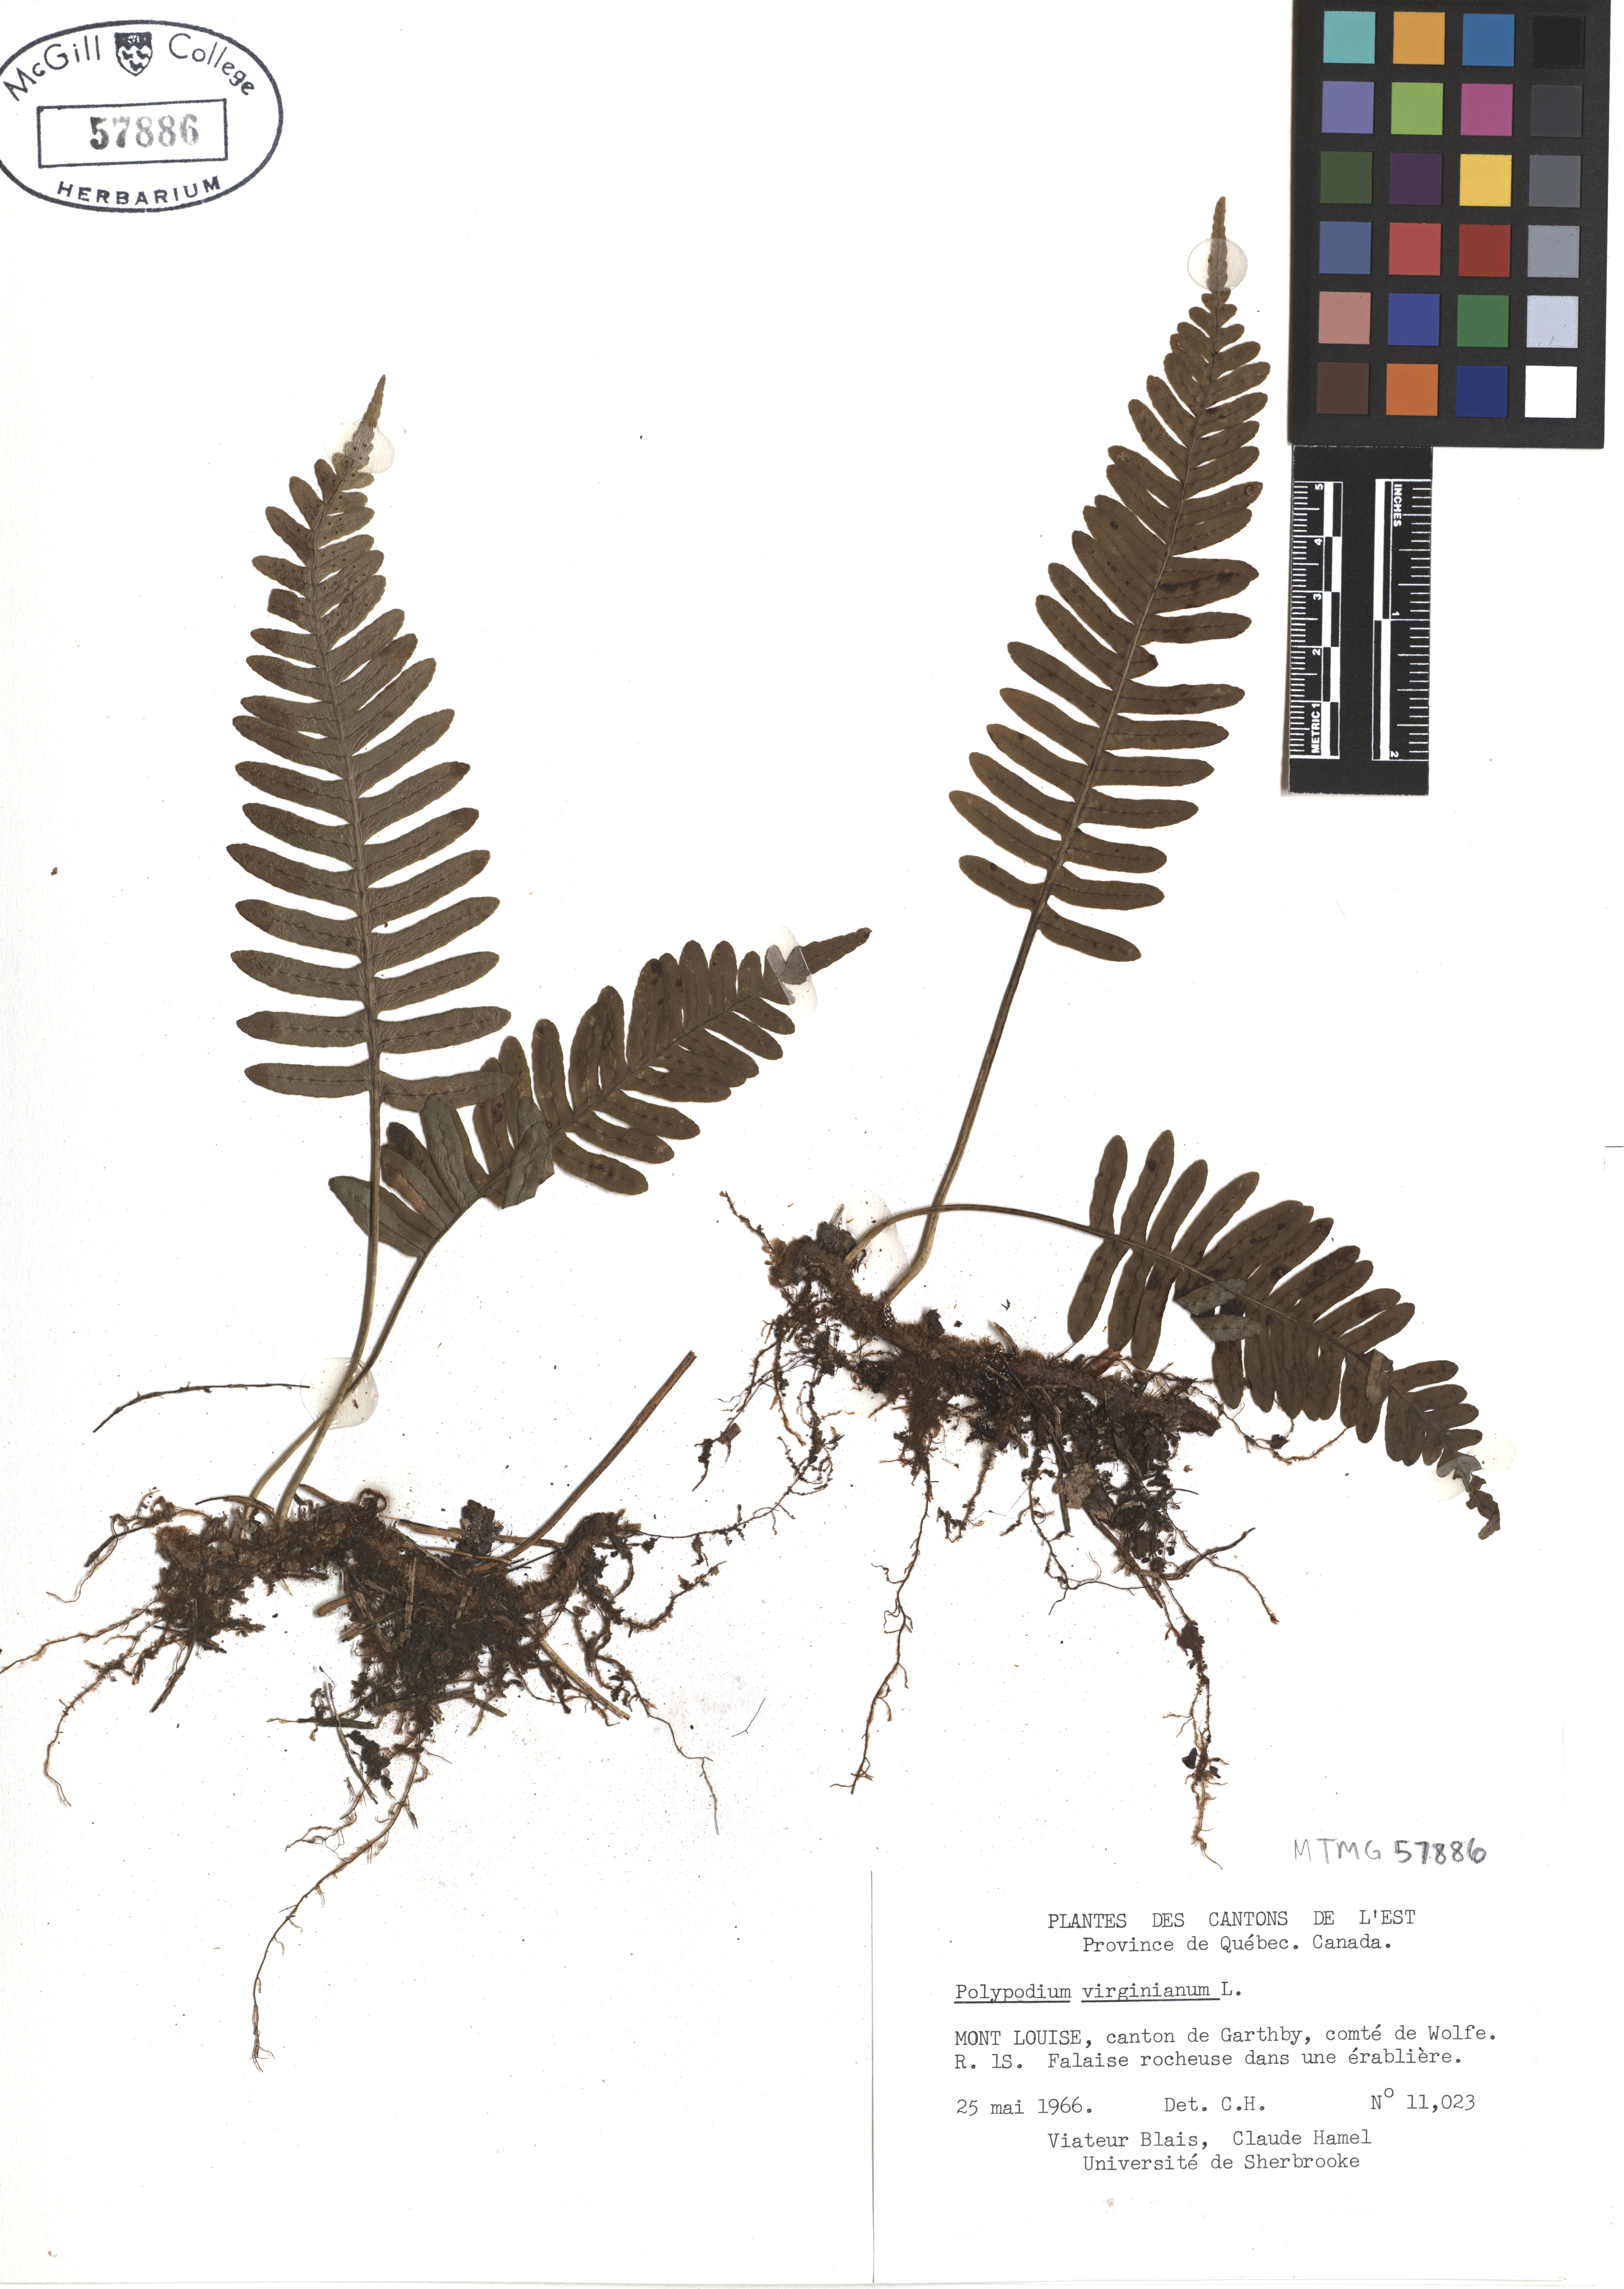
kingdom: Plantae
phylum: Tracheophyta
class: Polypodiopsida
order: Polypodiales
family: Polypodiaceae
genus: Polypodium
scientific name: Polypodium virginianum
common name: American wall fern
